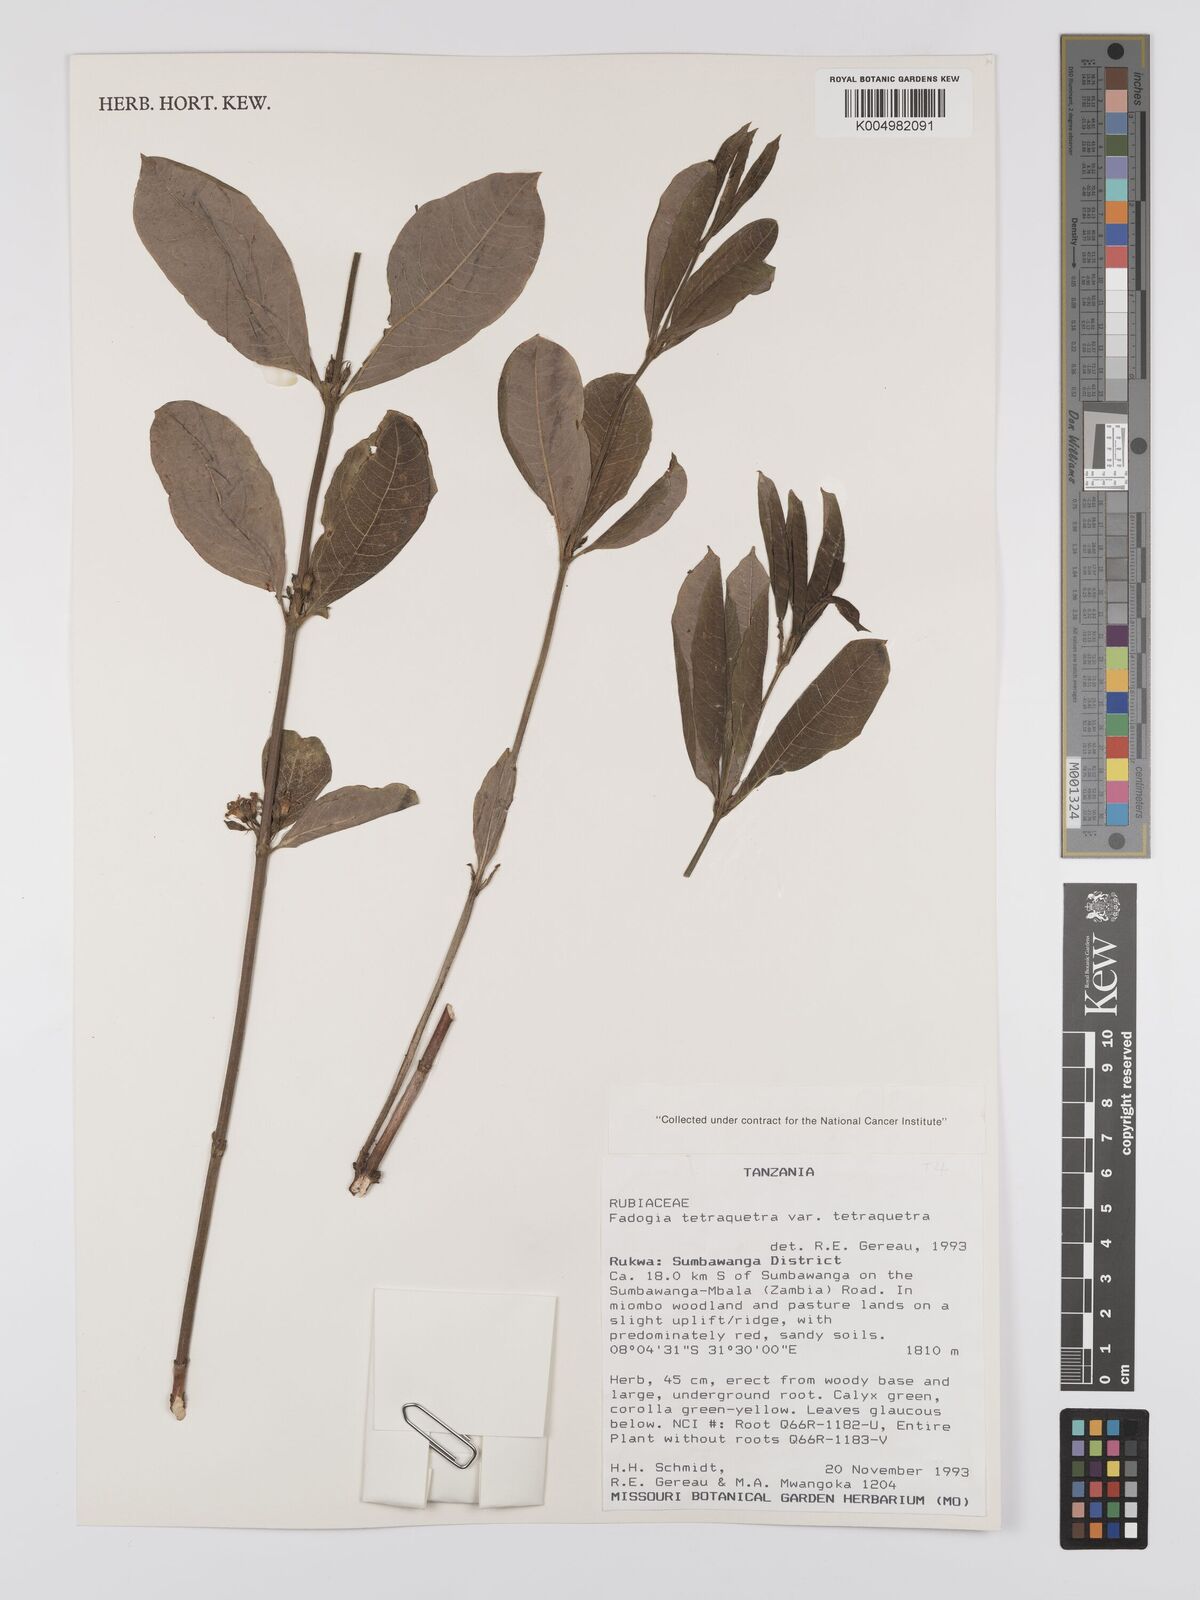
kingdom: Plantae
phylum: Tracheophyta
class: Magnoliopsida
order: Gentianales
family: Rubiaceae
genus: Fadogia
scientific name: Fadogia tetraquetra
